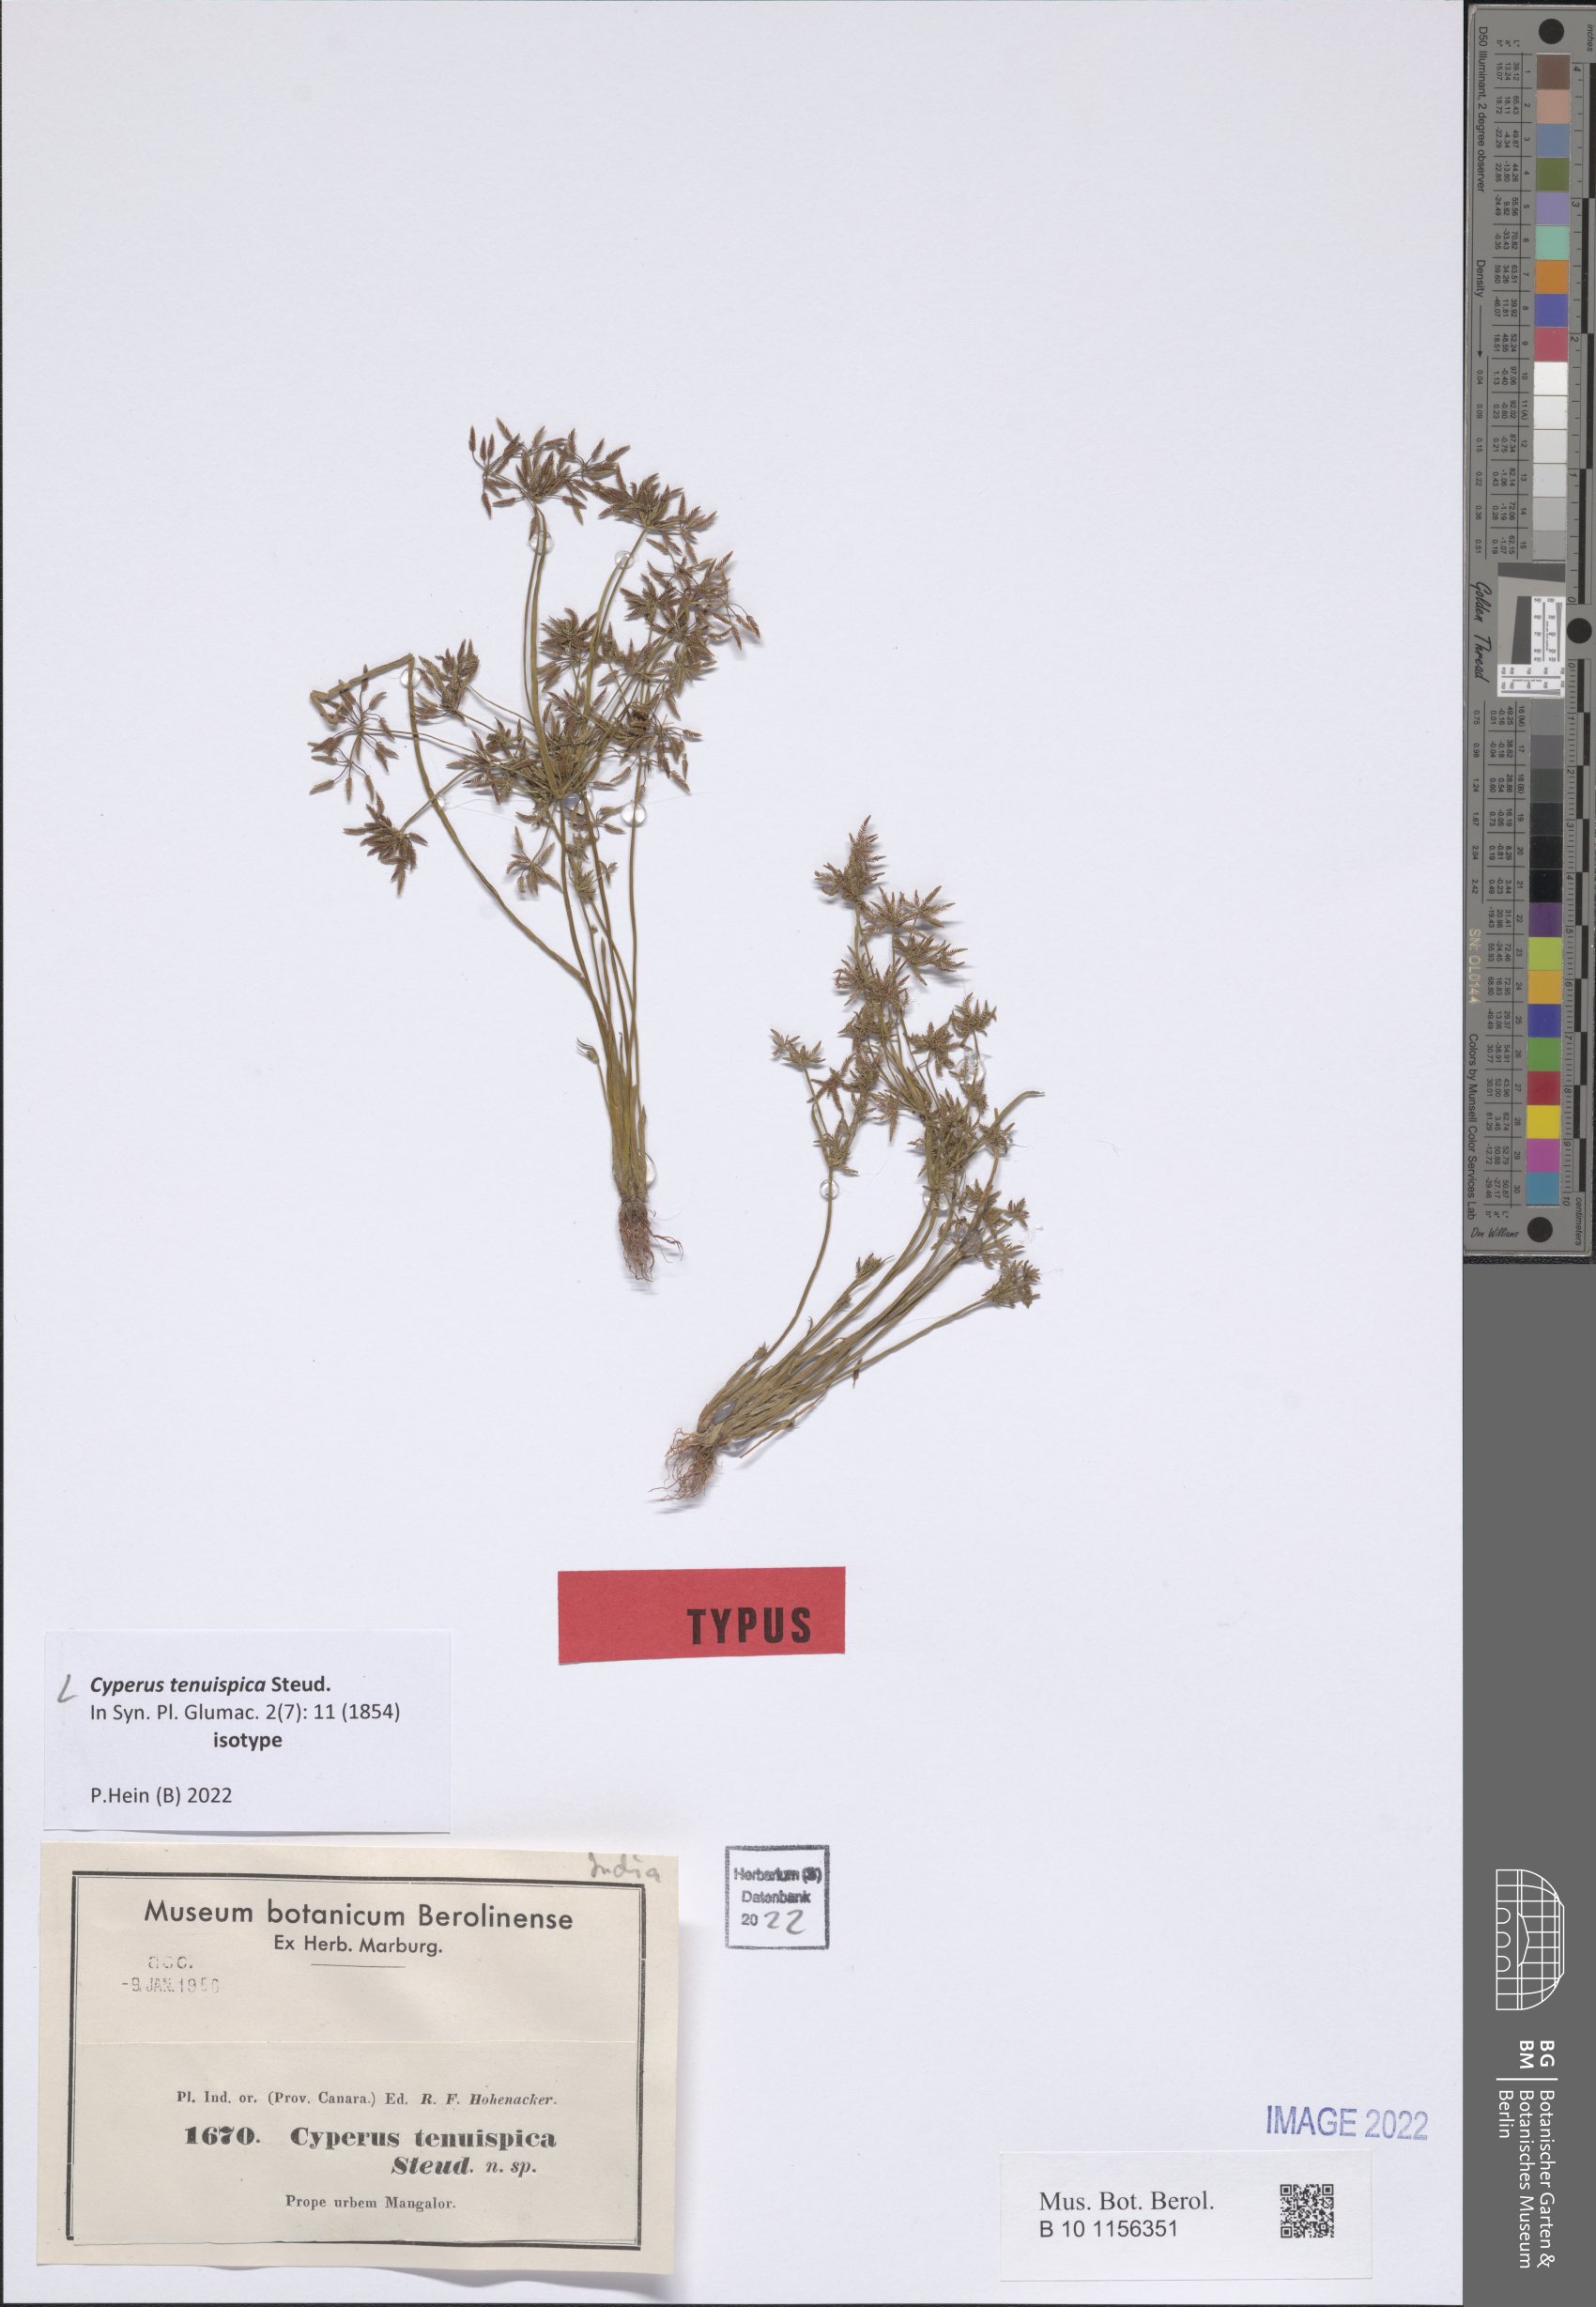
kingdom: Plantae
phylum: Tracheophyta
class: Liliopsida
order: Poales
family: Cyperaceae
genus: Cyperus
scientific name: Cyperus tenuispica
